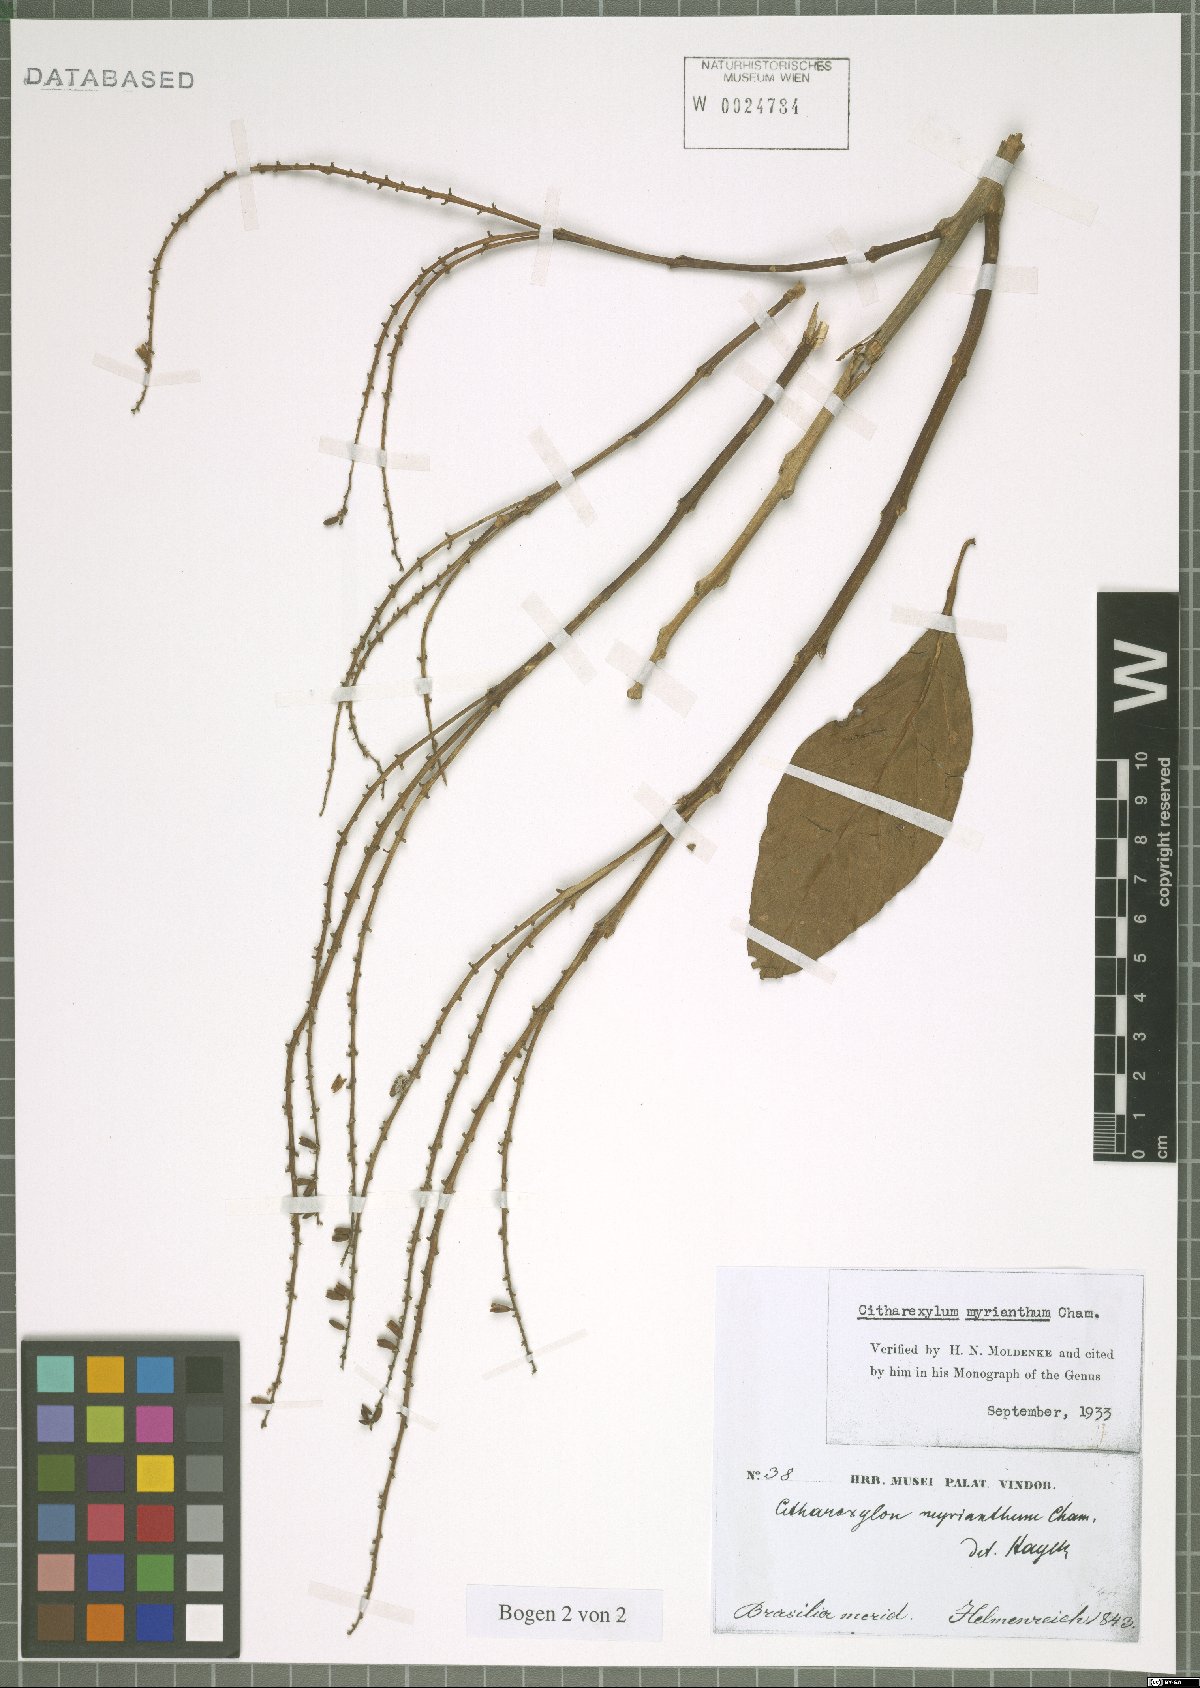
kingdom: Plantae
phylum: Tracheophyta
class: Magnoliopsida
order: Lamiales
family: Verbenaceae
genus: Citharexylum
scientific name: Citharexylum myrianthum
